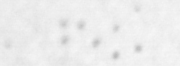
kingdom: Animalia
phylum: Chordata
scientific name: Chordata
